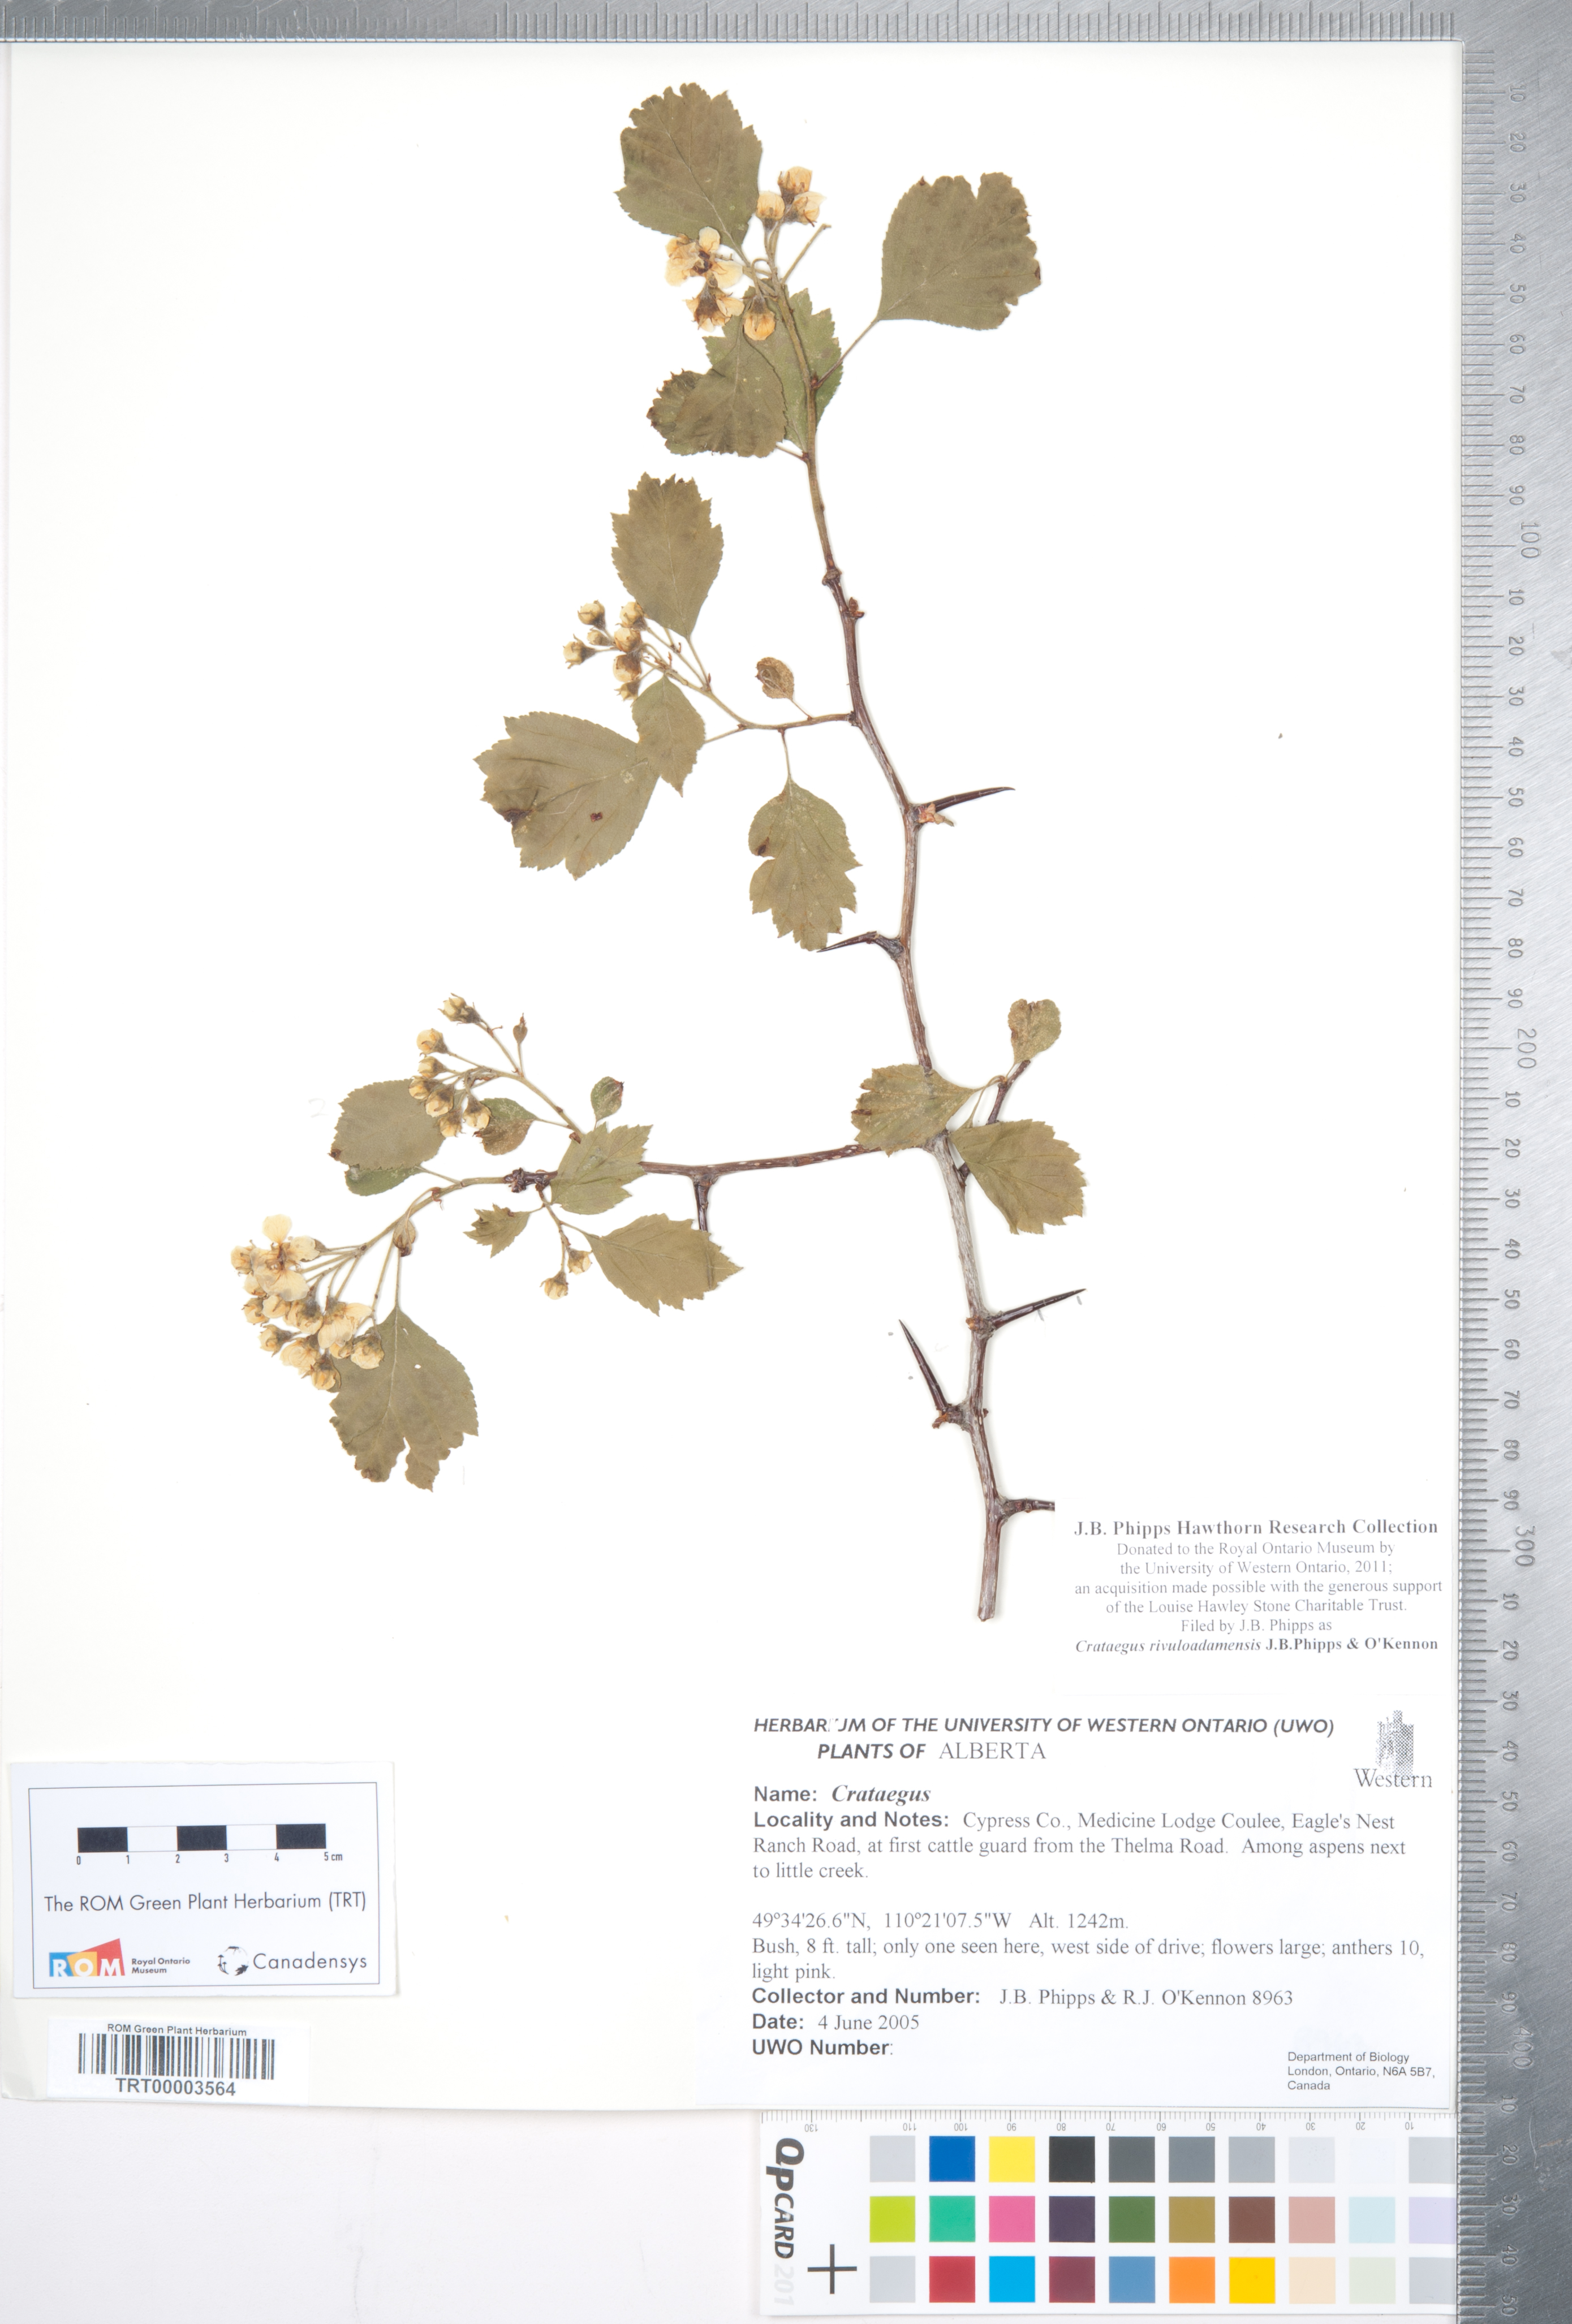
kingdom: Plantae
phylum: Tracheophyta
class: Magnoliopsida
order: Rosales
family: Rosaceae
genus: Crataegus
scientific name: Crataegus rivuloadamensis
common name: Adams creek hawthorn
